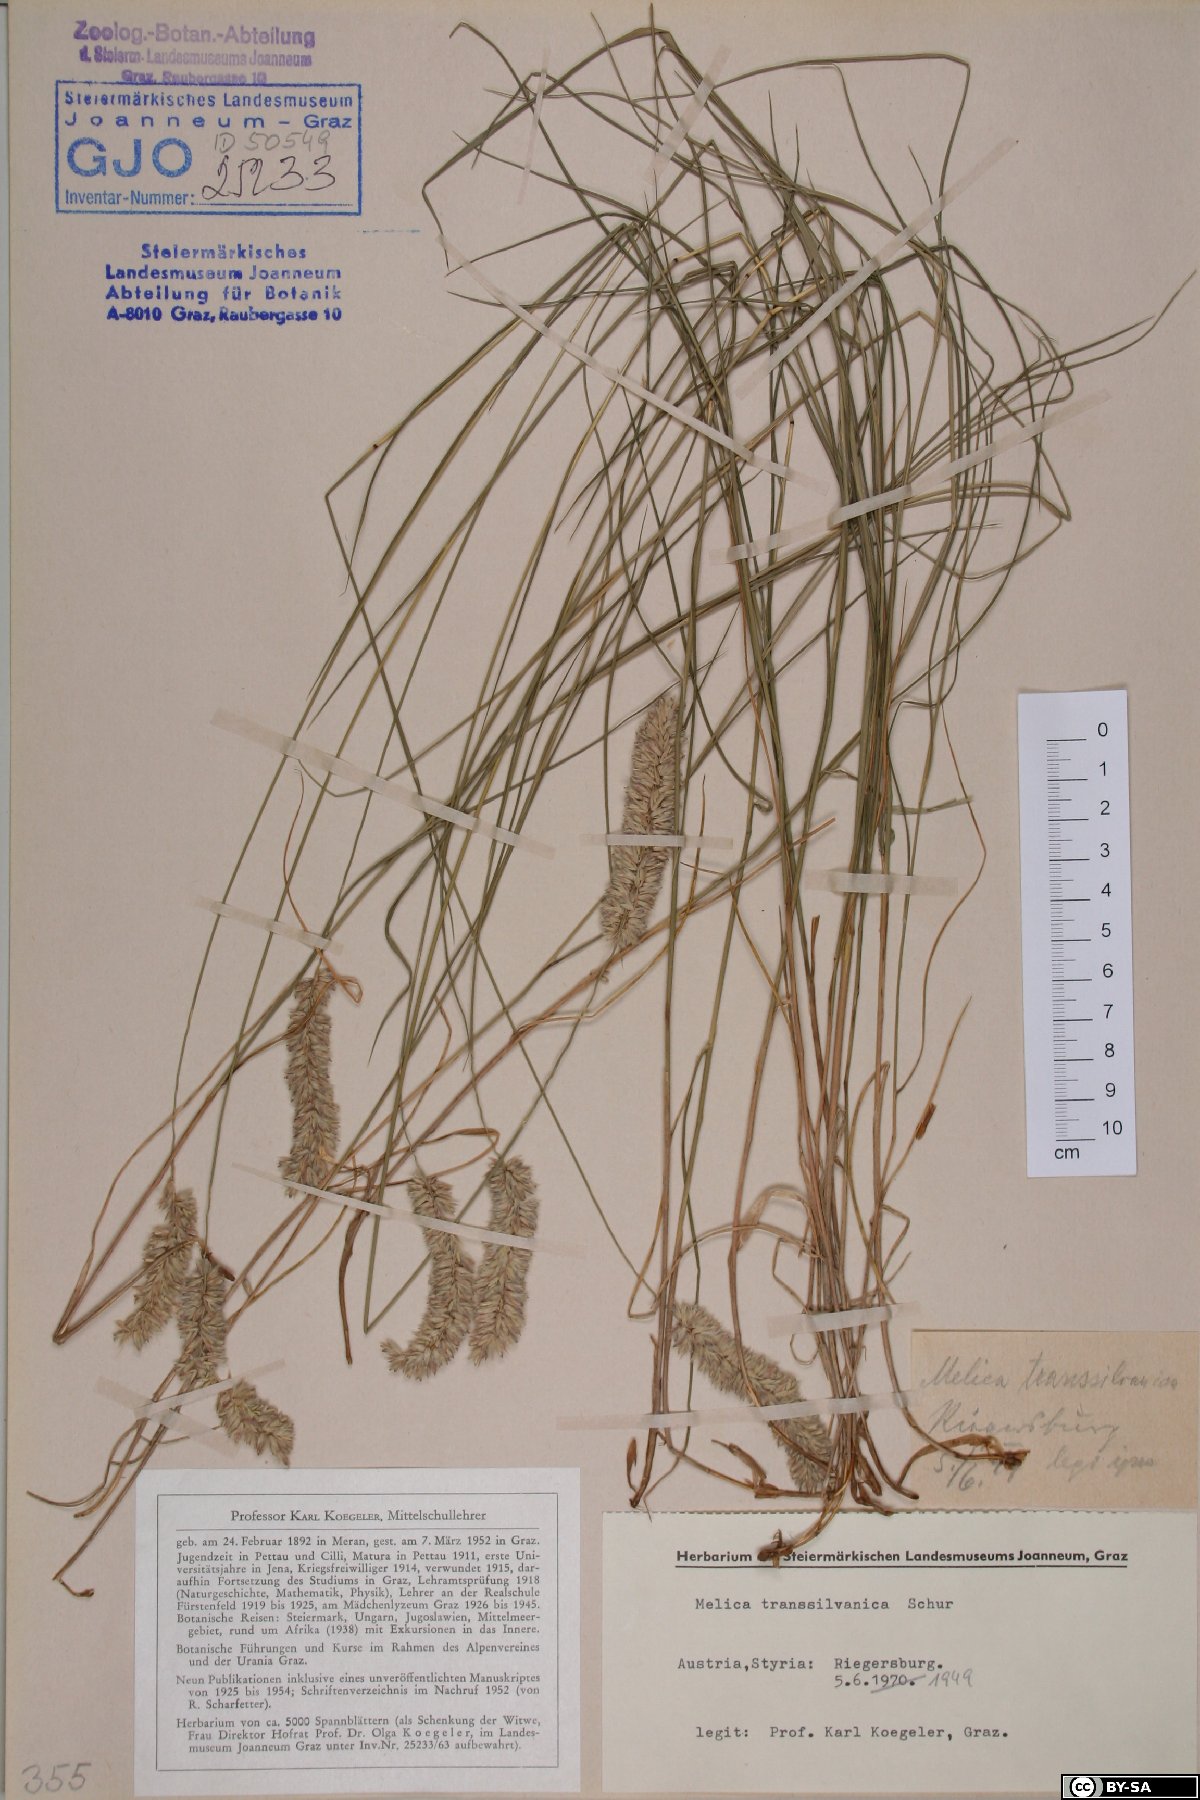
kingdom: Plantae
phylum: Tracheophyta
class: Liliopsida
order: Poales
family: Poaceae
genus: Melica
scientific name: Melica transsilvanica
